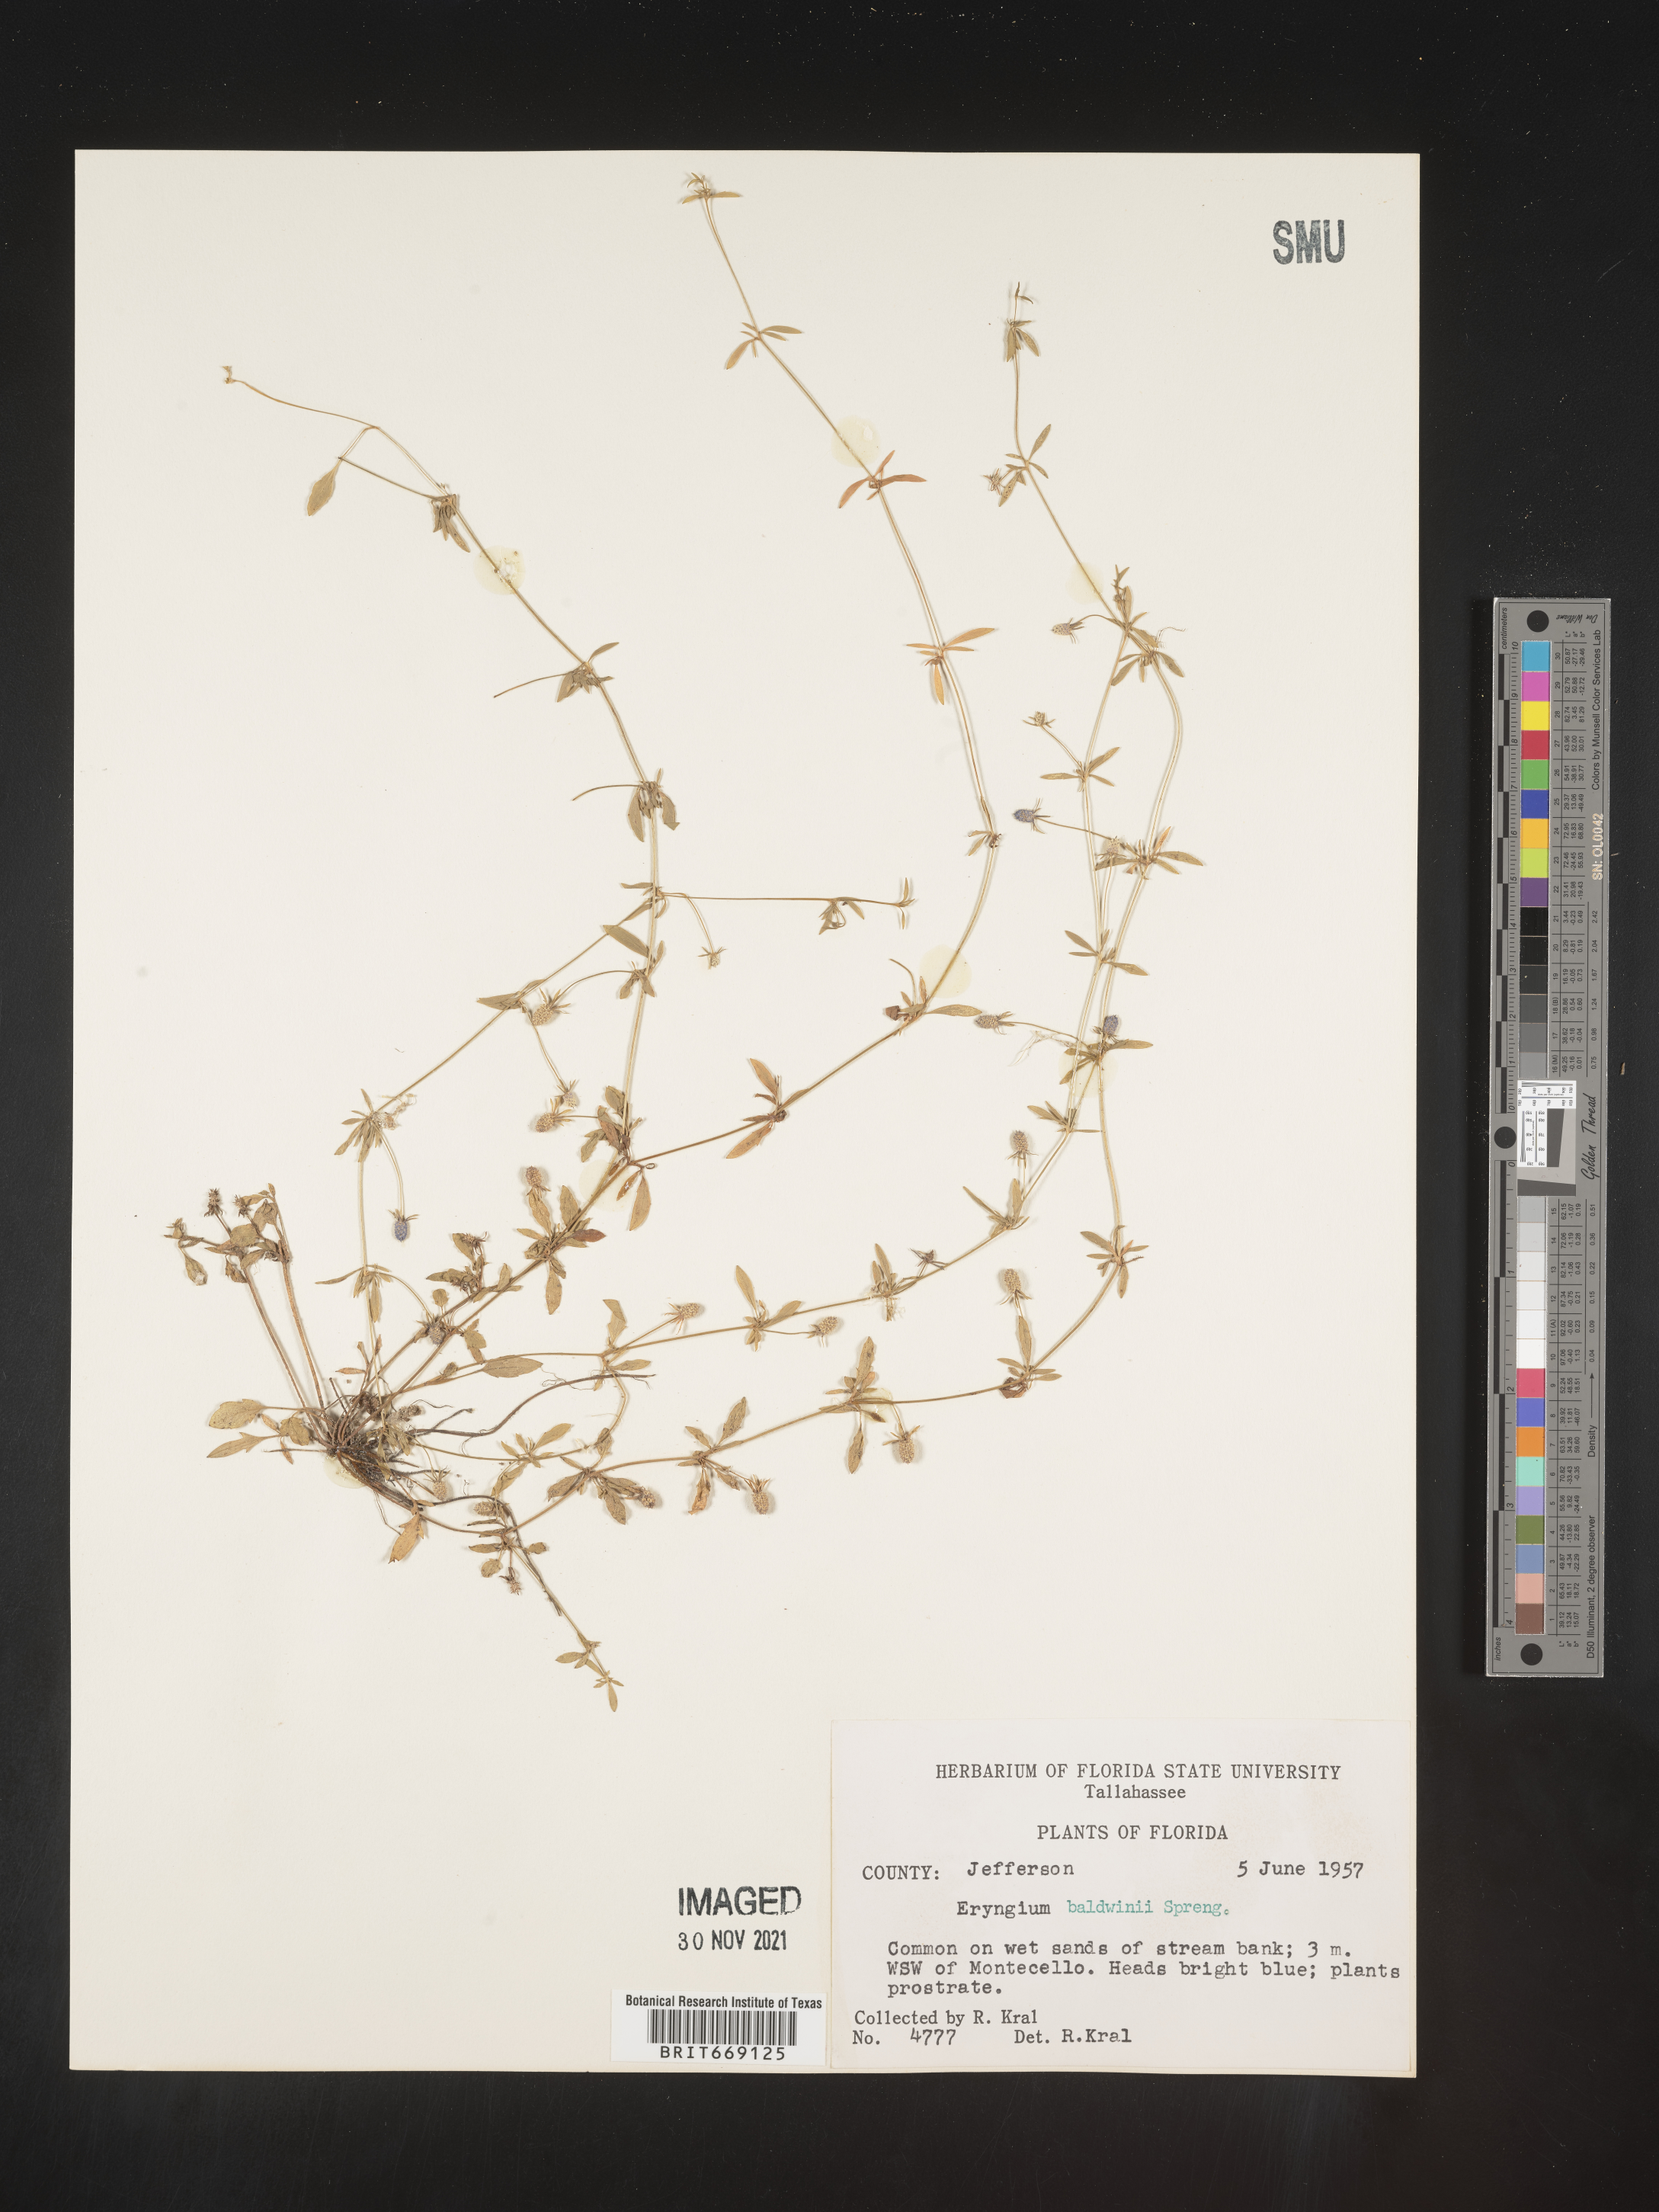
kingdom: Plantae
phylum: Tracheophyta
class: Magnoliopsida
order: Apiales
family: Apiaceae
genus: Eryngium
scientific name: Eryngium baldwinii
